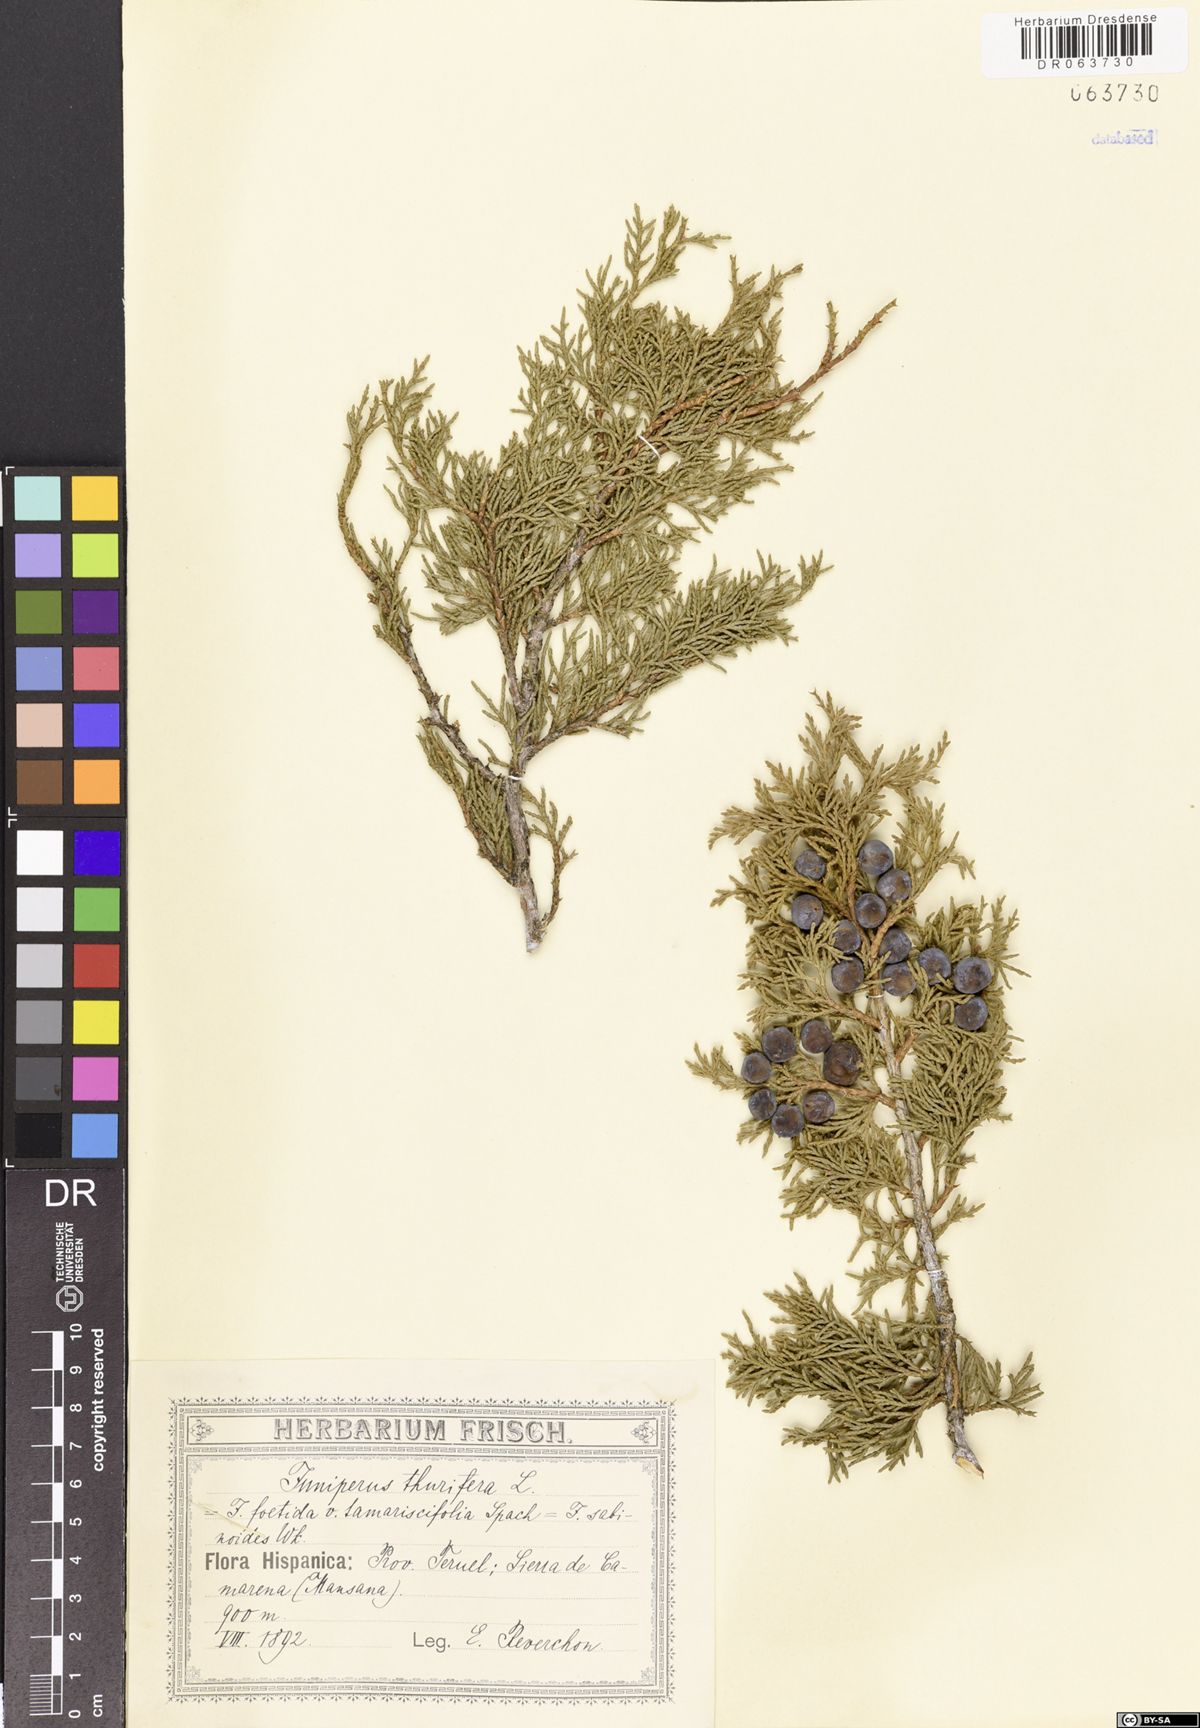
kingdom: Plantae
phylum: Tracheophyta
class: Pinopsida
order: Pinales
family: Cupressaceae
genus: Juniperus
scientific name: Juniperus thurifera
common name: Incense juniper
